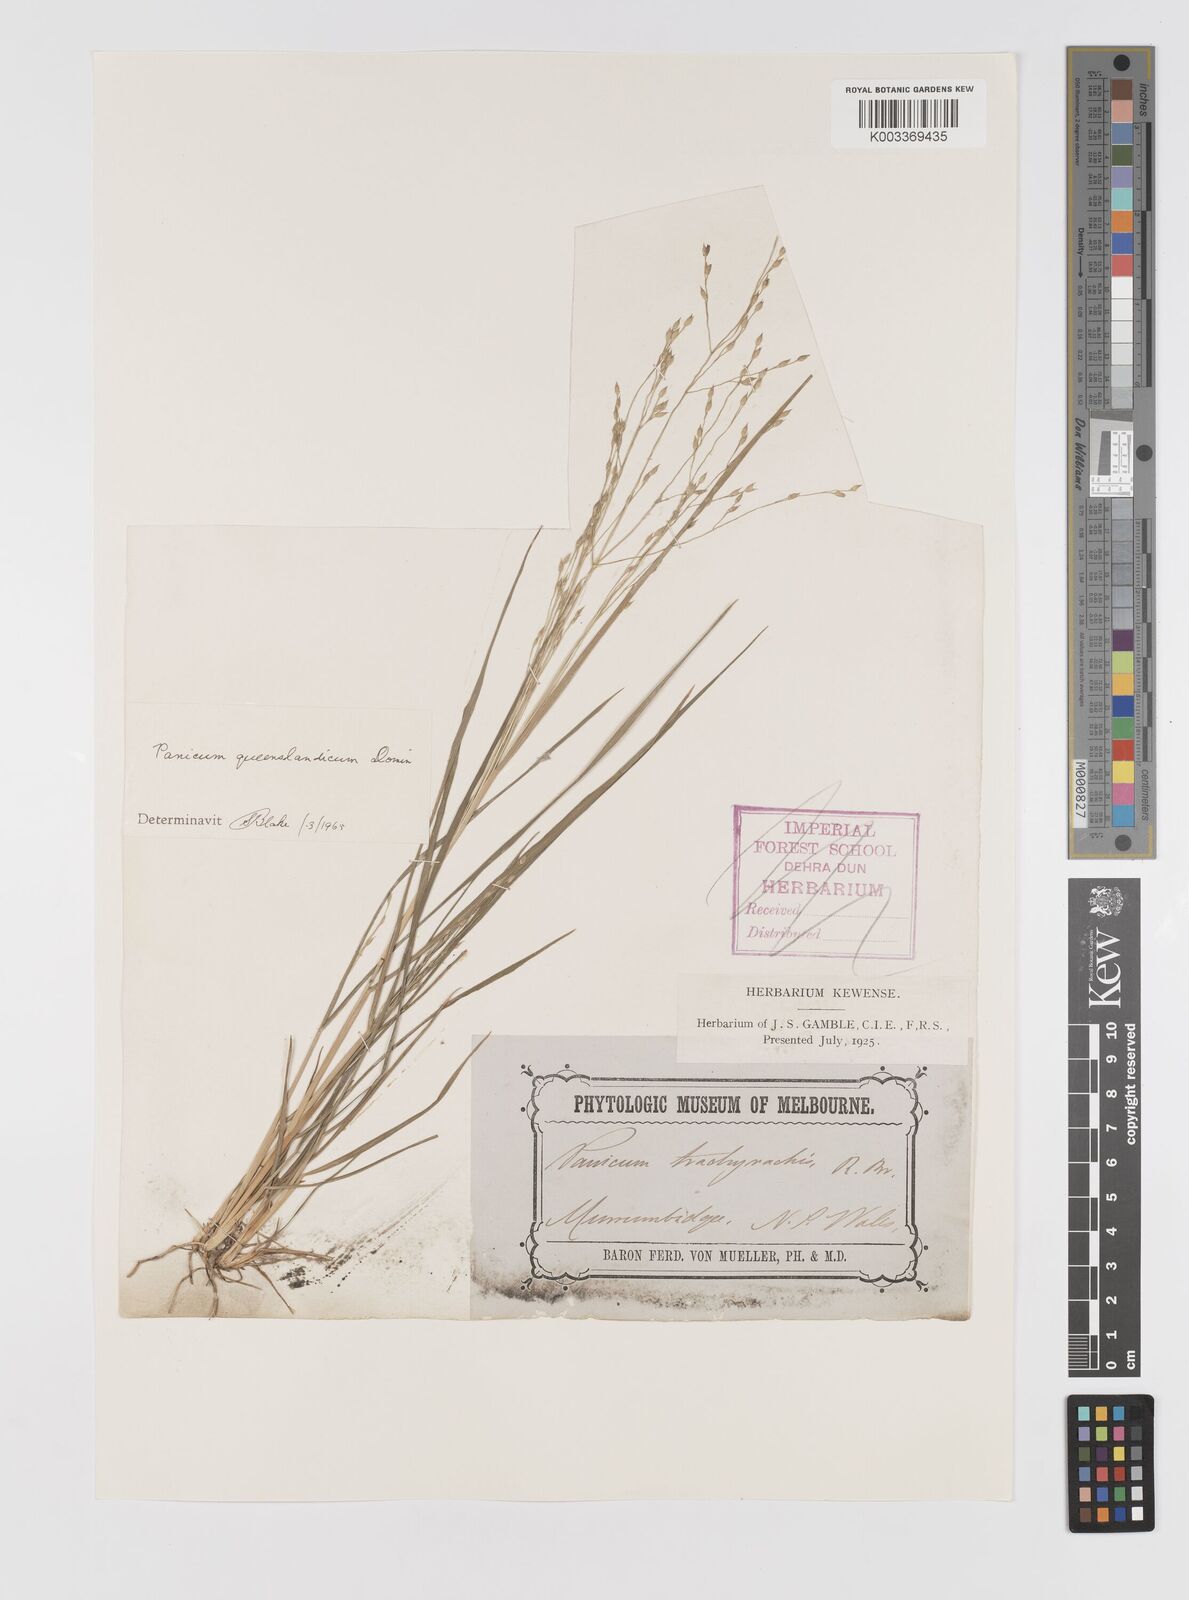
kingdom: Plantae
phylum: Tracheophyta
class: Liliopsida
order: Poales
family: Poaceae
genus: Panicum
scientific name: Panicum queenslandicum
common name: Yabila grass
